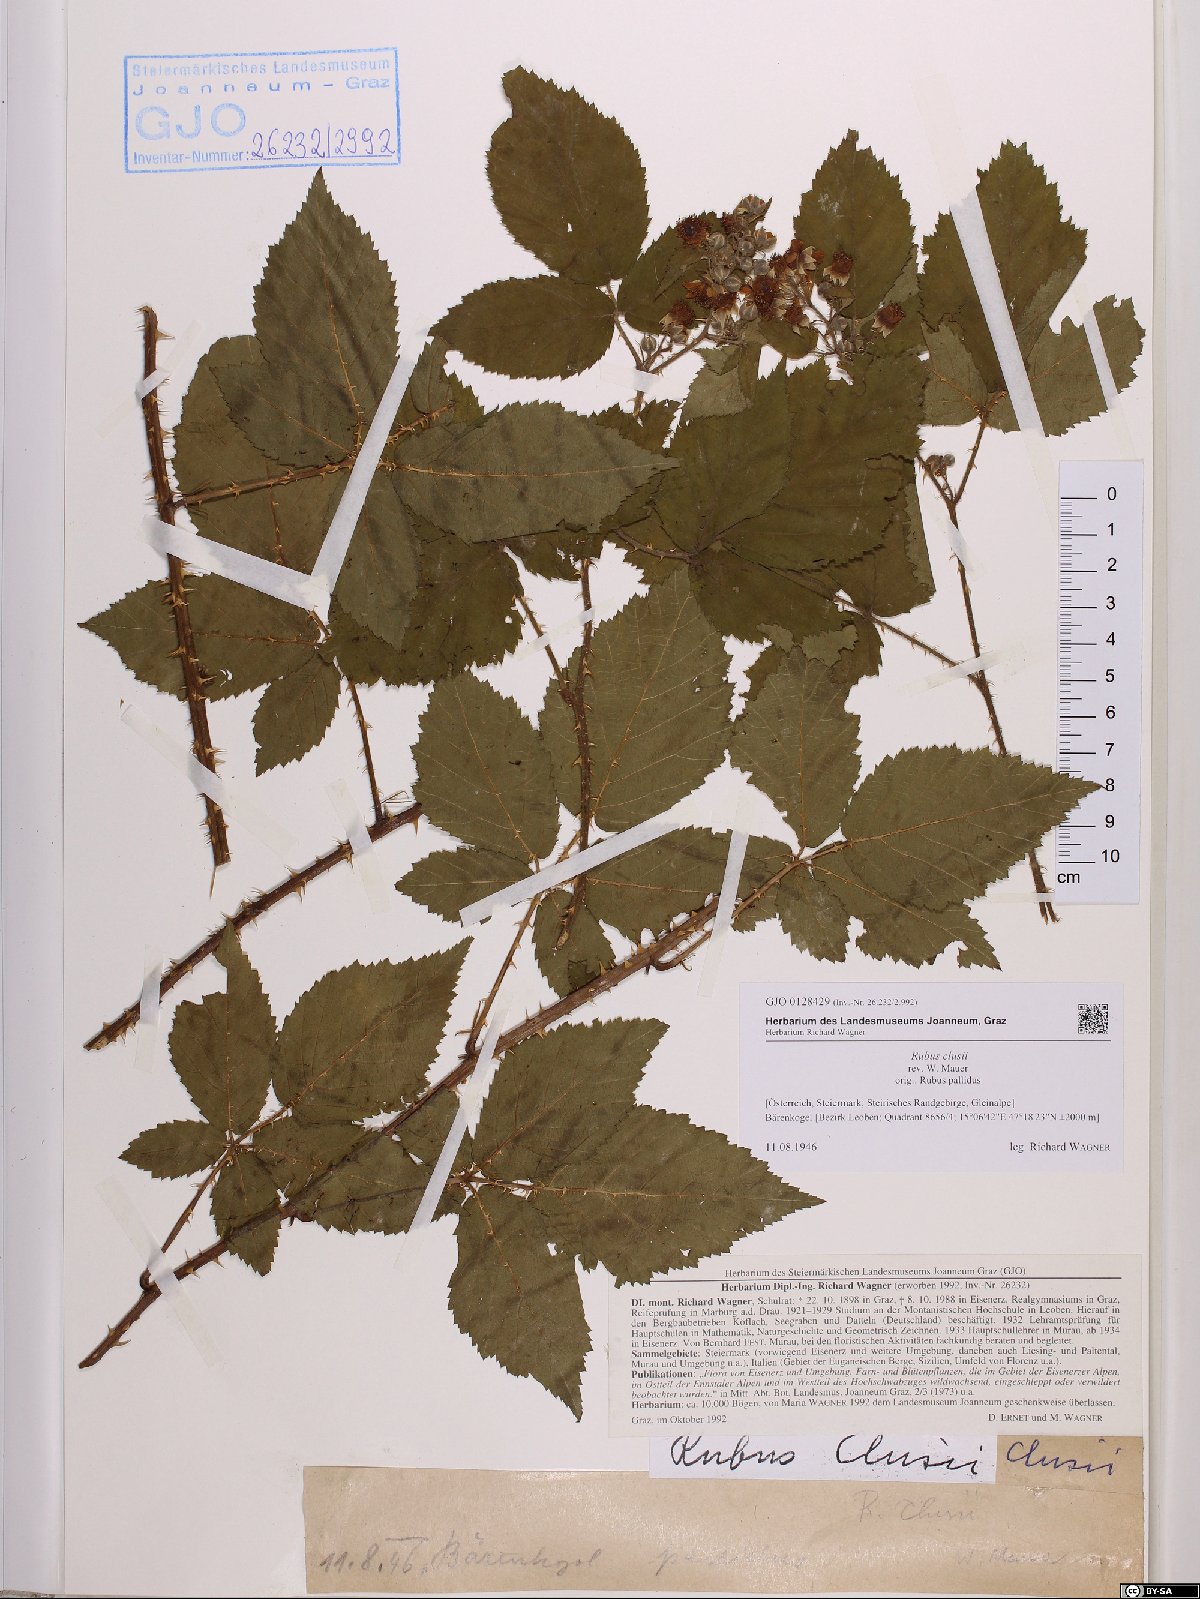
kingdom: Plantae
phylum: Tracheophyta
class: Magnoliopsida
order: Rosales
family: Rosaceae
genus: Rubus
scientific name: Rubus clusii
